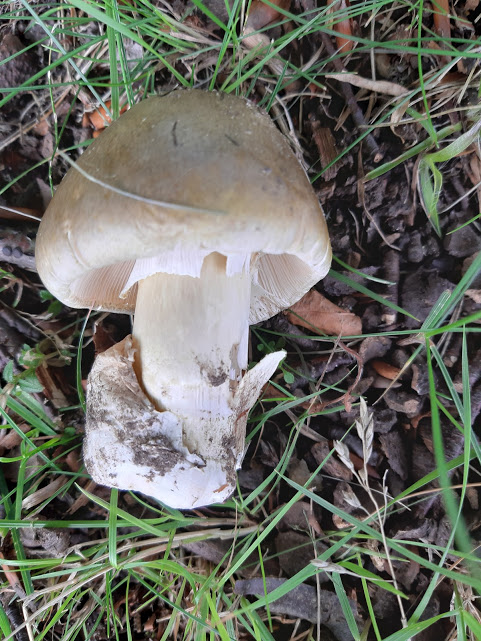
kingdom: Fungi
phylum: Basidiomycota
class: Agaricomycetes
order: Agaricales
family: Amanitaceae
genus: Amanita
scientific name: Amanita phalloides
